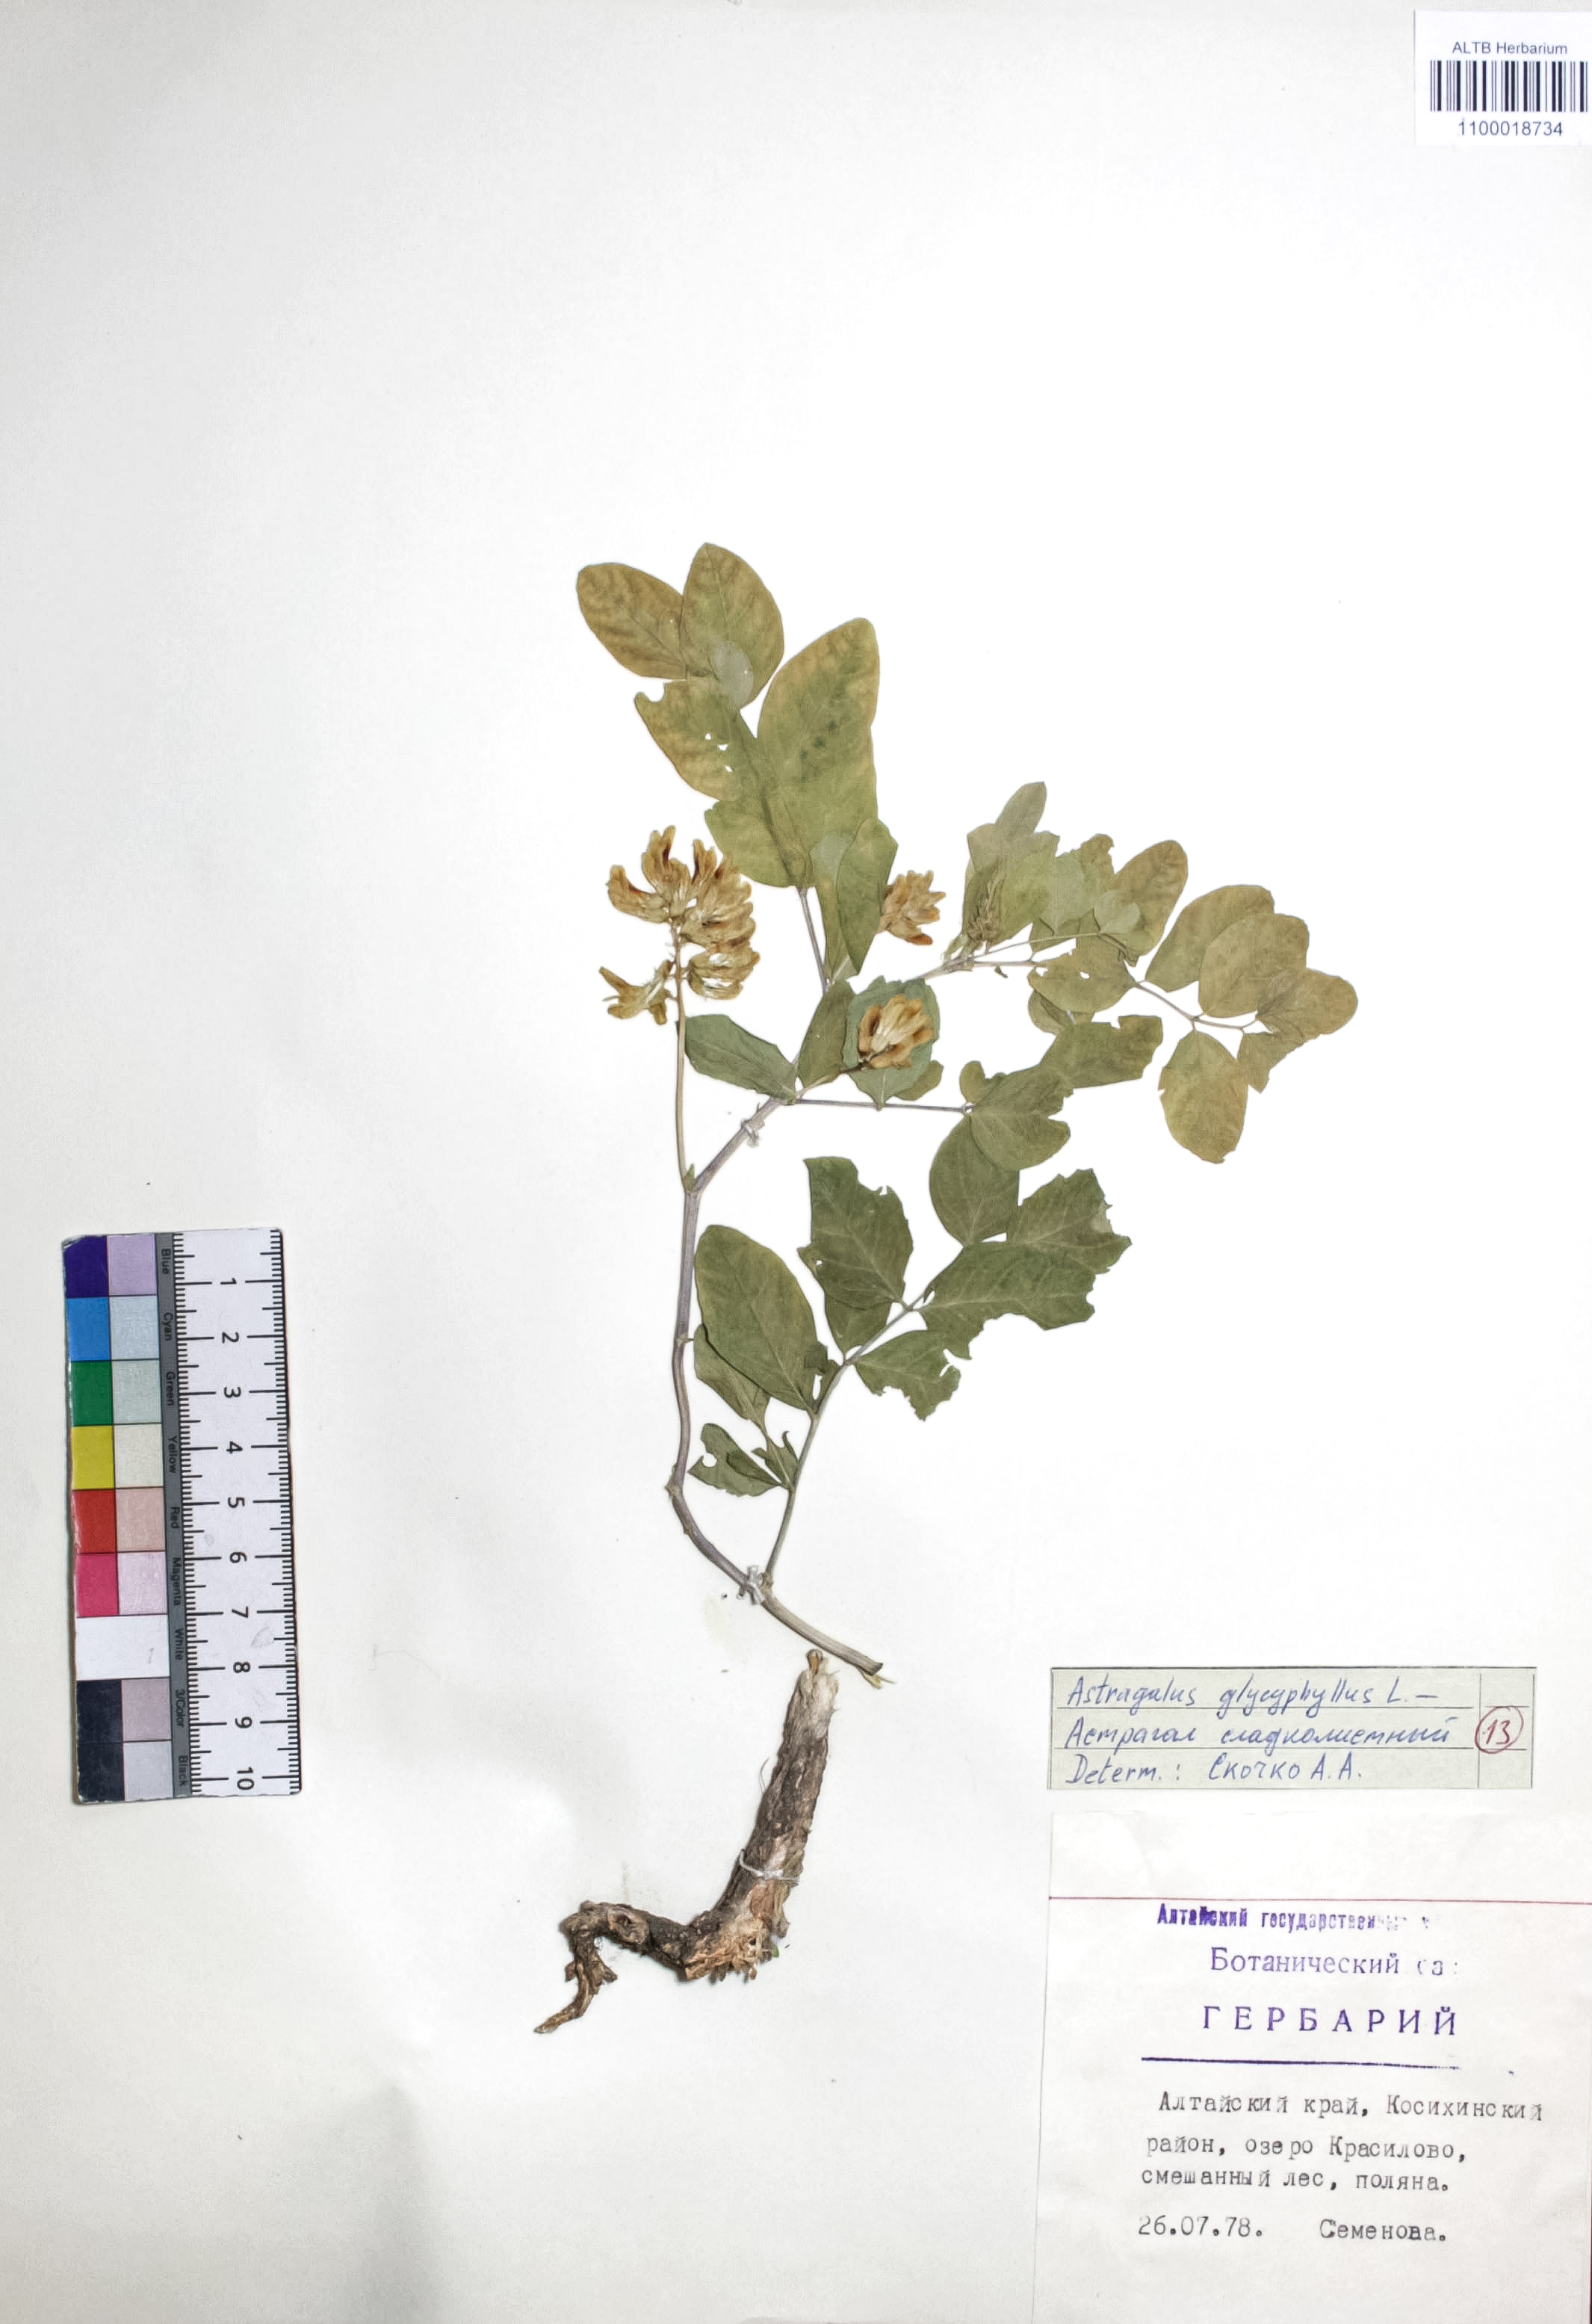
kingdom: Plantae
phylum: Tracheophyta
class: Magnoliopsida
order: Fabales
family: Fabaceae
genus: Astragalus
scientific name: Astragalus glycyphyllos
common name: Wild liquorice
